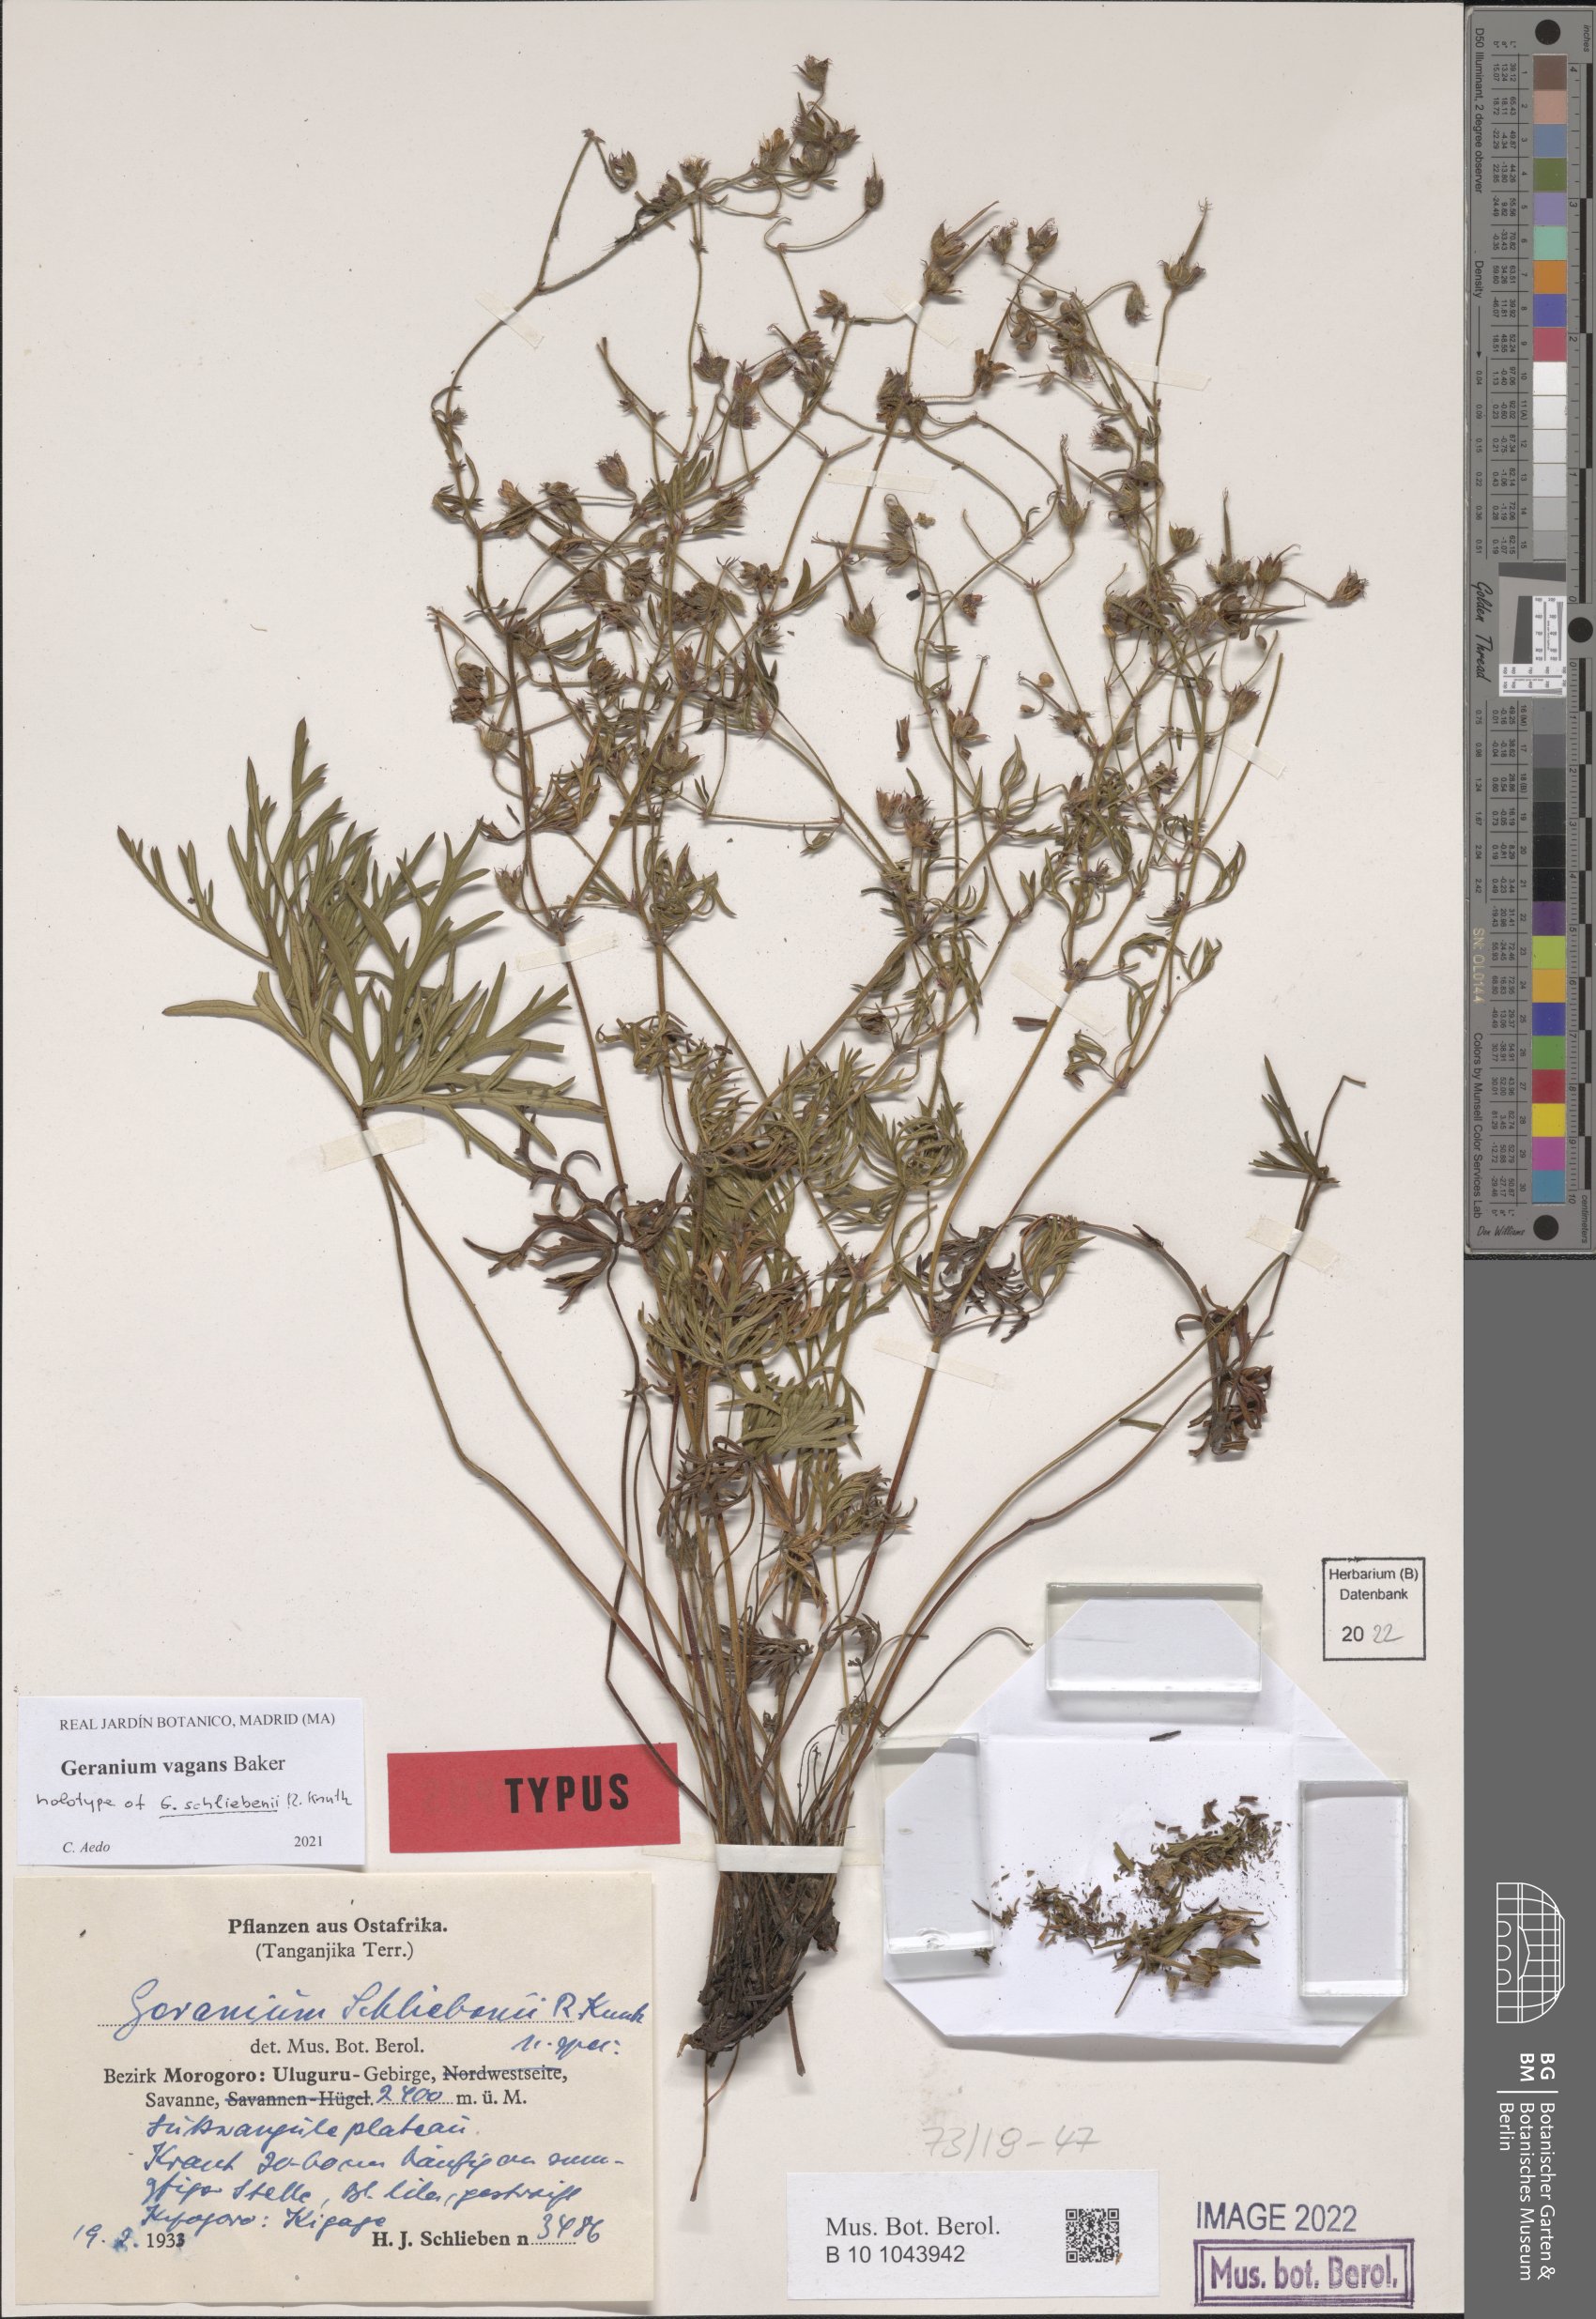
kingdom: Plantae
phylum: Tracheophyta
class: Magnoliopsida
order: Geraniales
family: Geraniaceae
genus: Geranium
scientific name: Geranium vagans
